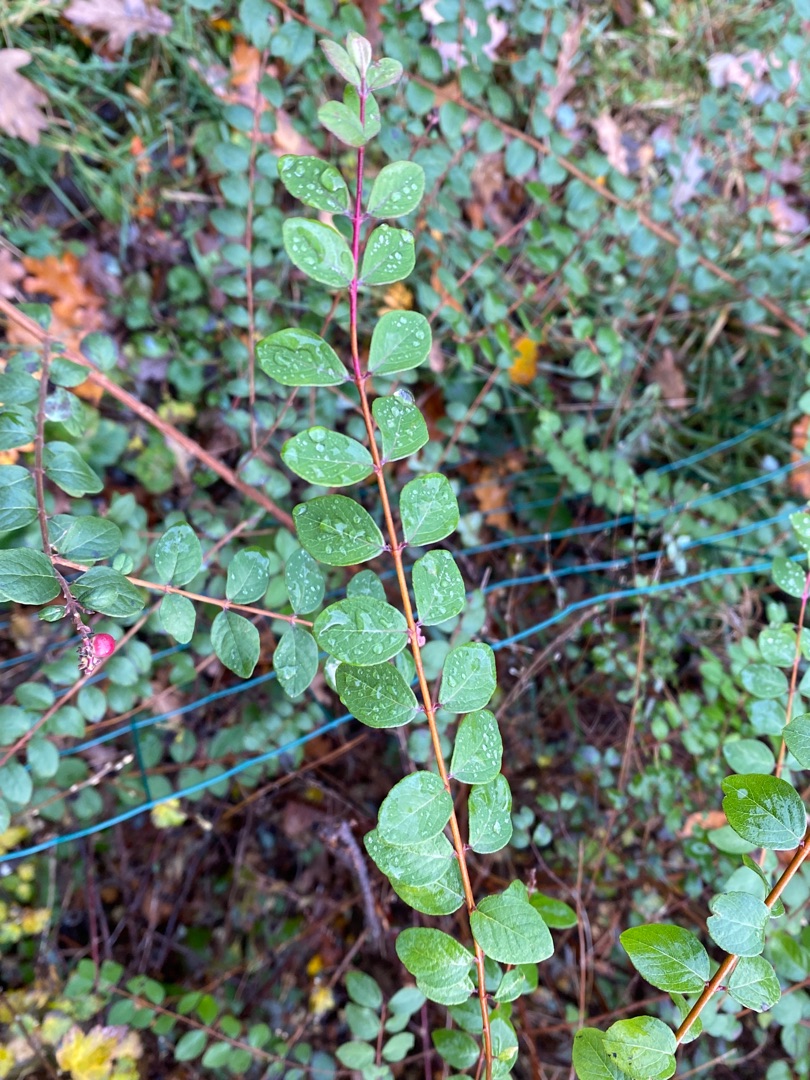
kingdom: Plantae
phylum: Tracheophyta
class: Magnoliopsida
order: Dipsacales
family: Caprifoliaceae
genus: Symphoricarpos
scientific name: Symphoricarpos chenaultii
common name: Rød snebær
